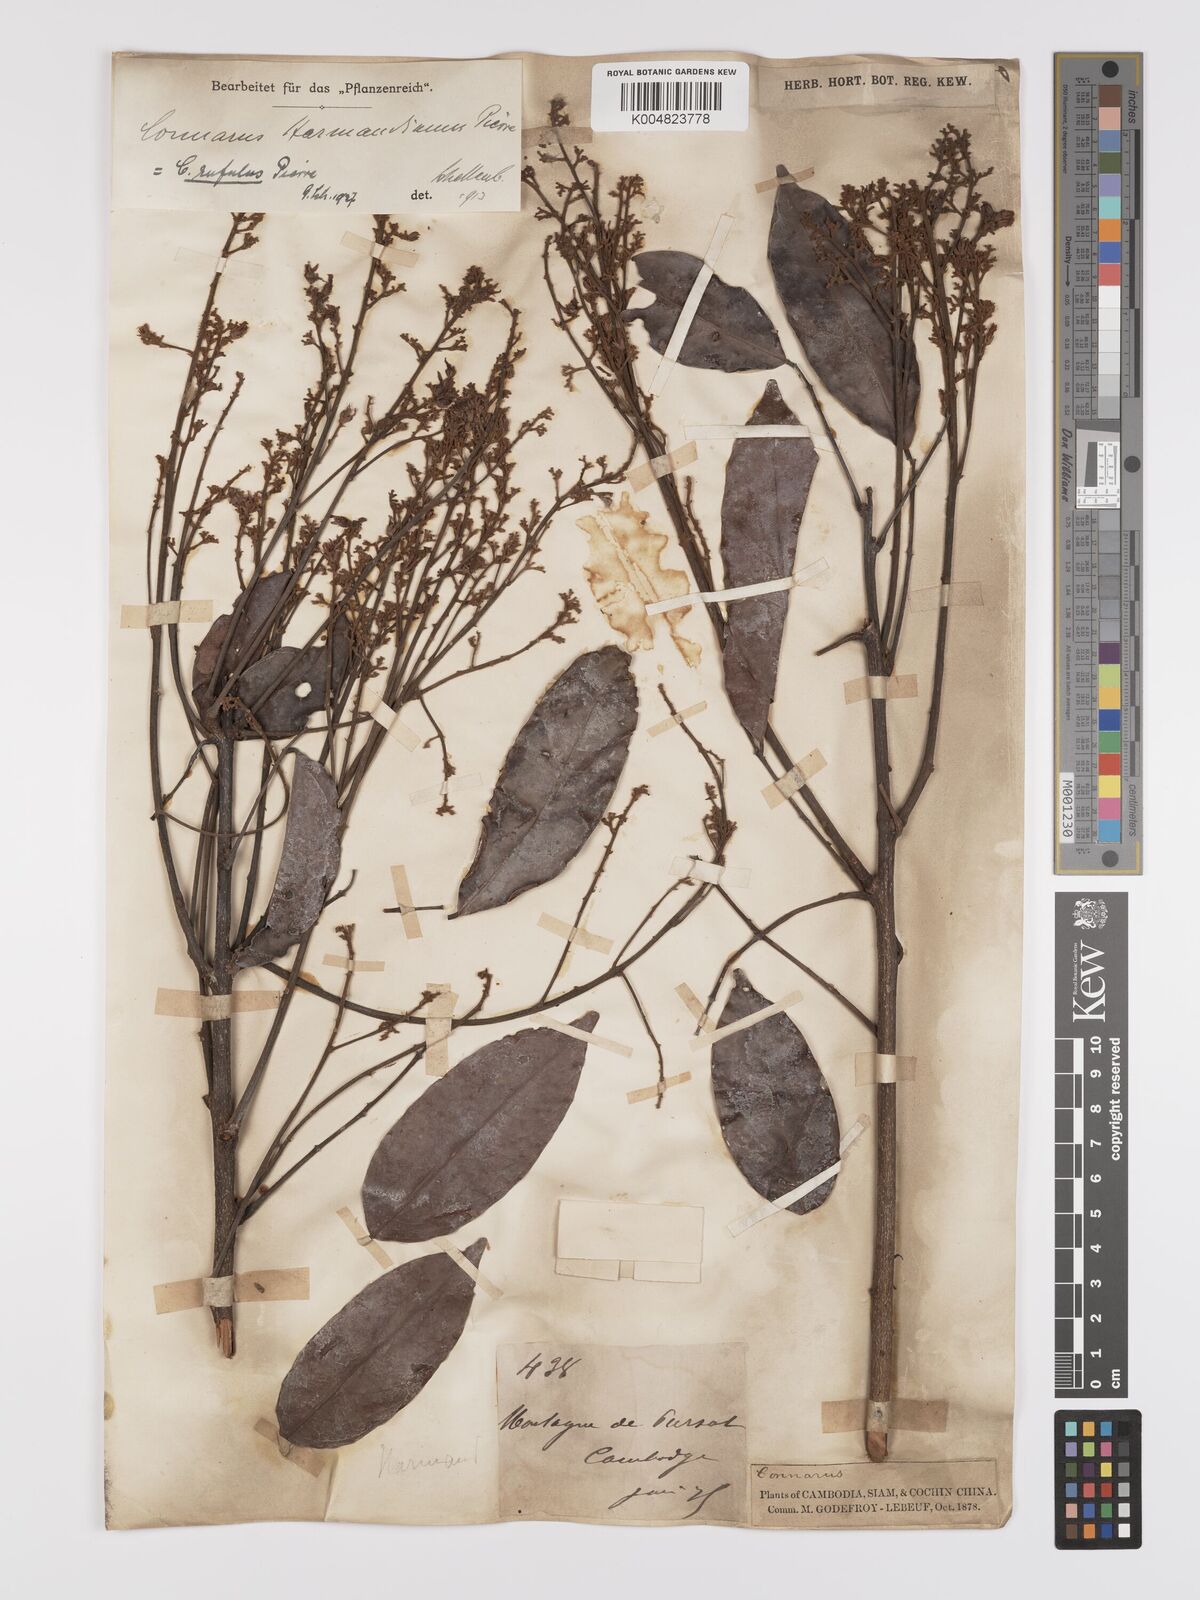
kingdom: Plantae
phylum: Tracheophyta
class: Magnoliopsida
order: Oxalidales
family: Connaraceae
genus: Connarus
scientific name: Connarus paniculatus
